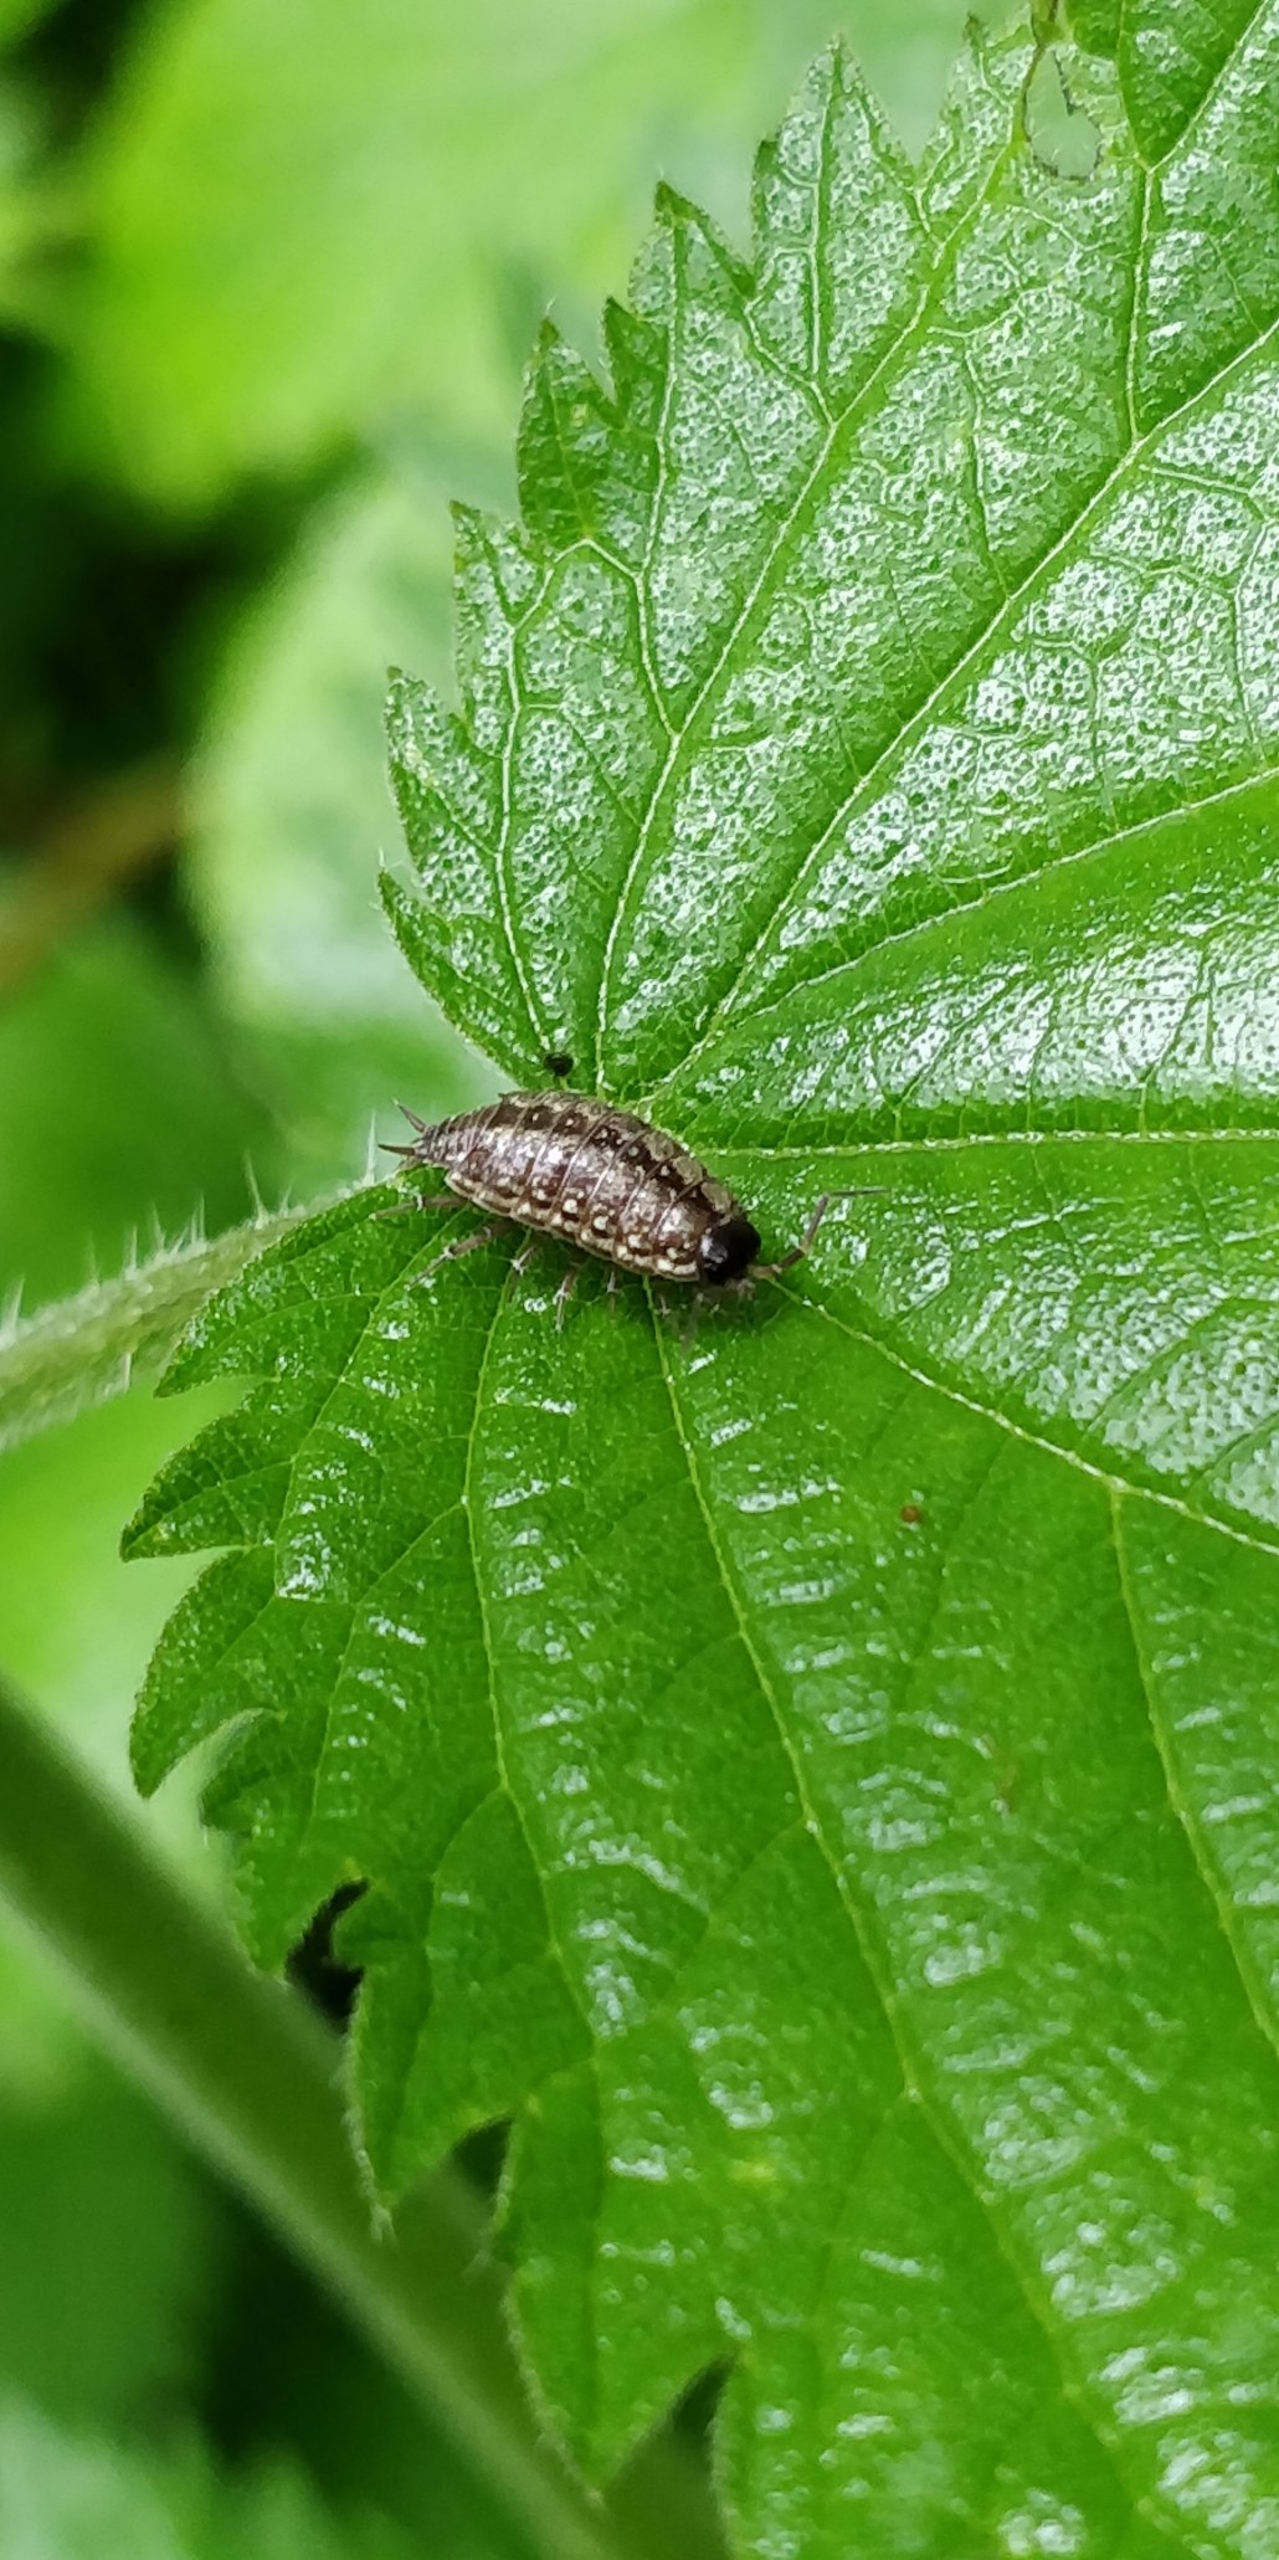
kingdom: Animalia
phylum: Arthropoda
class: Malacostraca
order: Isopoda
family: Philosciidae
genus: Philoscia
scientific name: Philoscia muscorum
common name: Langbenet bænkebider
